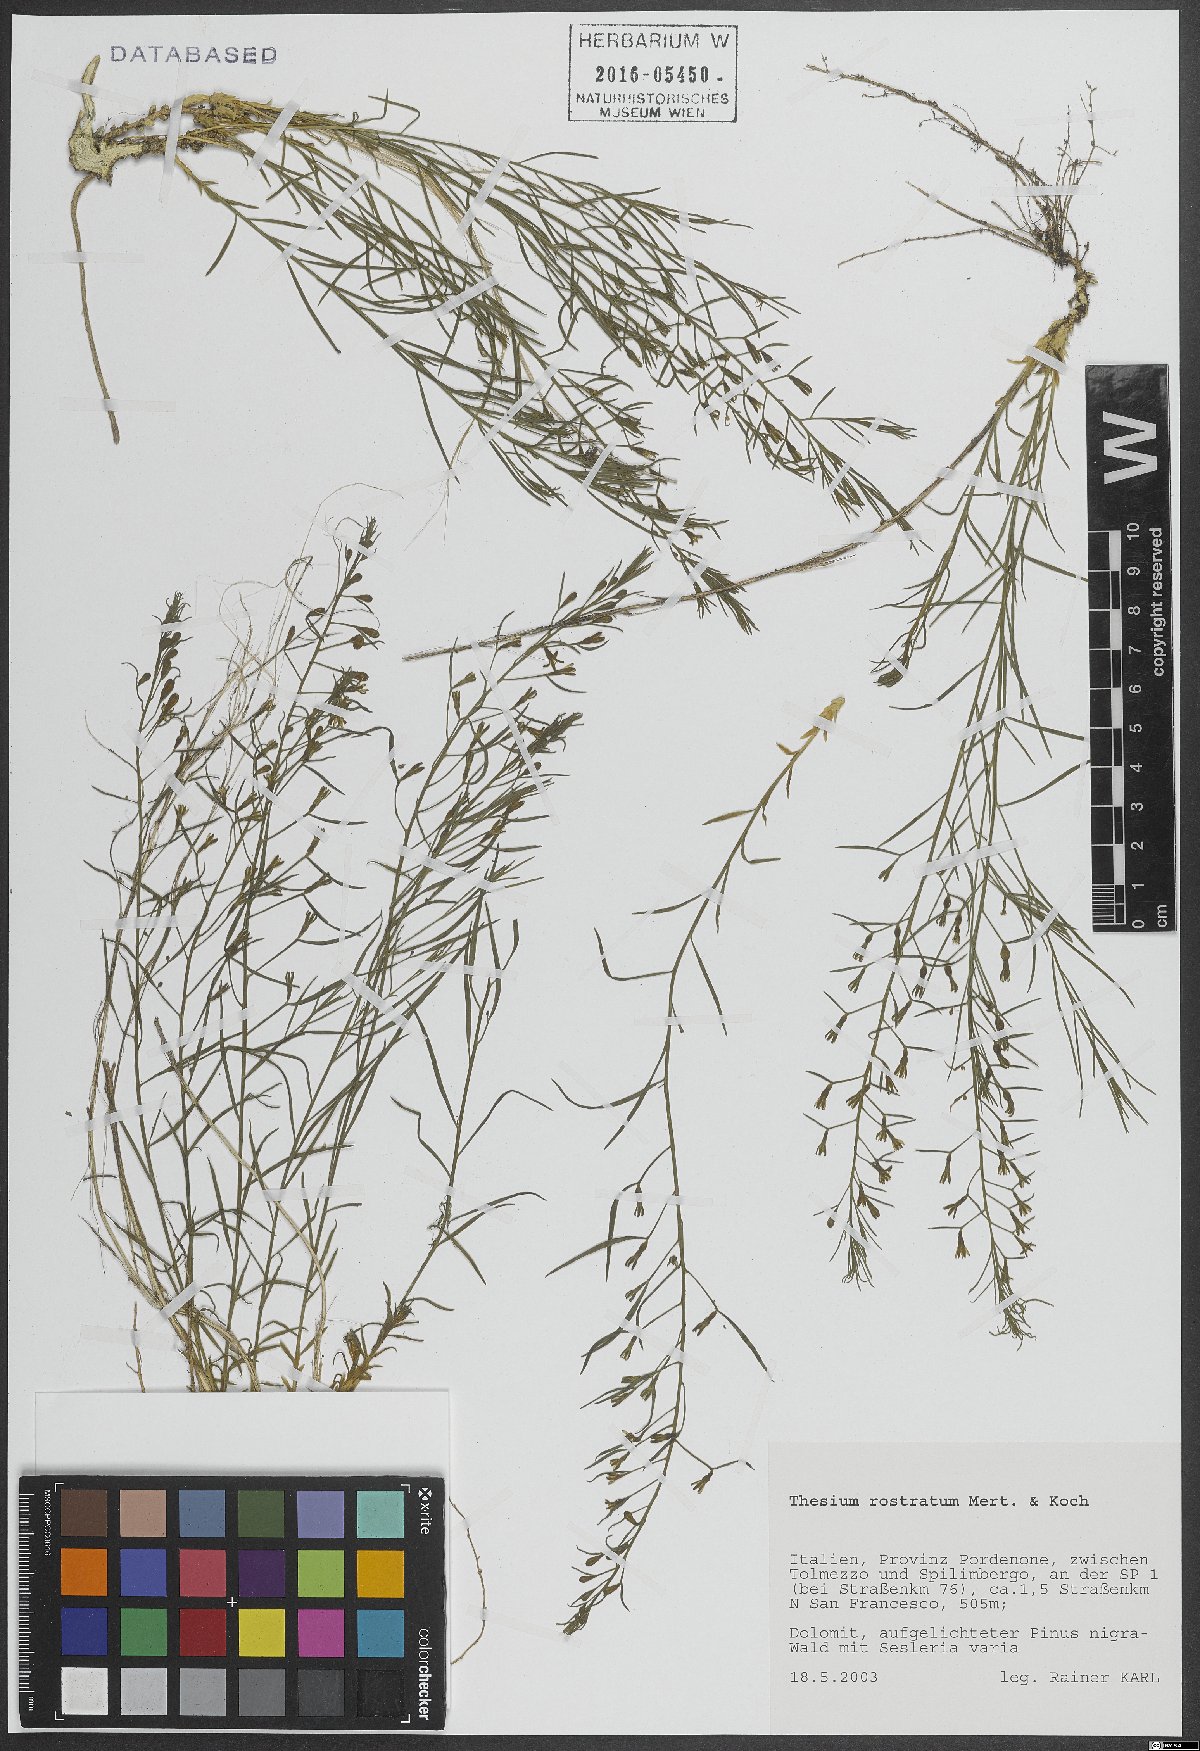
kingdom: Plantae
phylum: Tracheophyta
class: Magnoliopsida
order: Santalales
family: Thesiaceae
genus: Thesium
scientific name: Thesium rostratum
